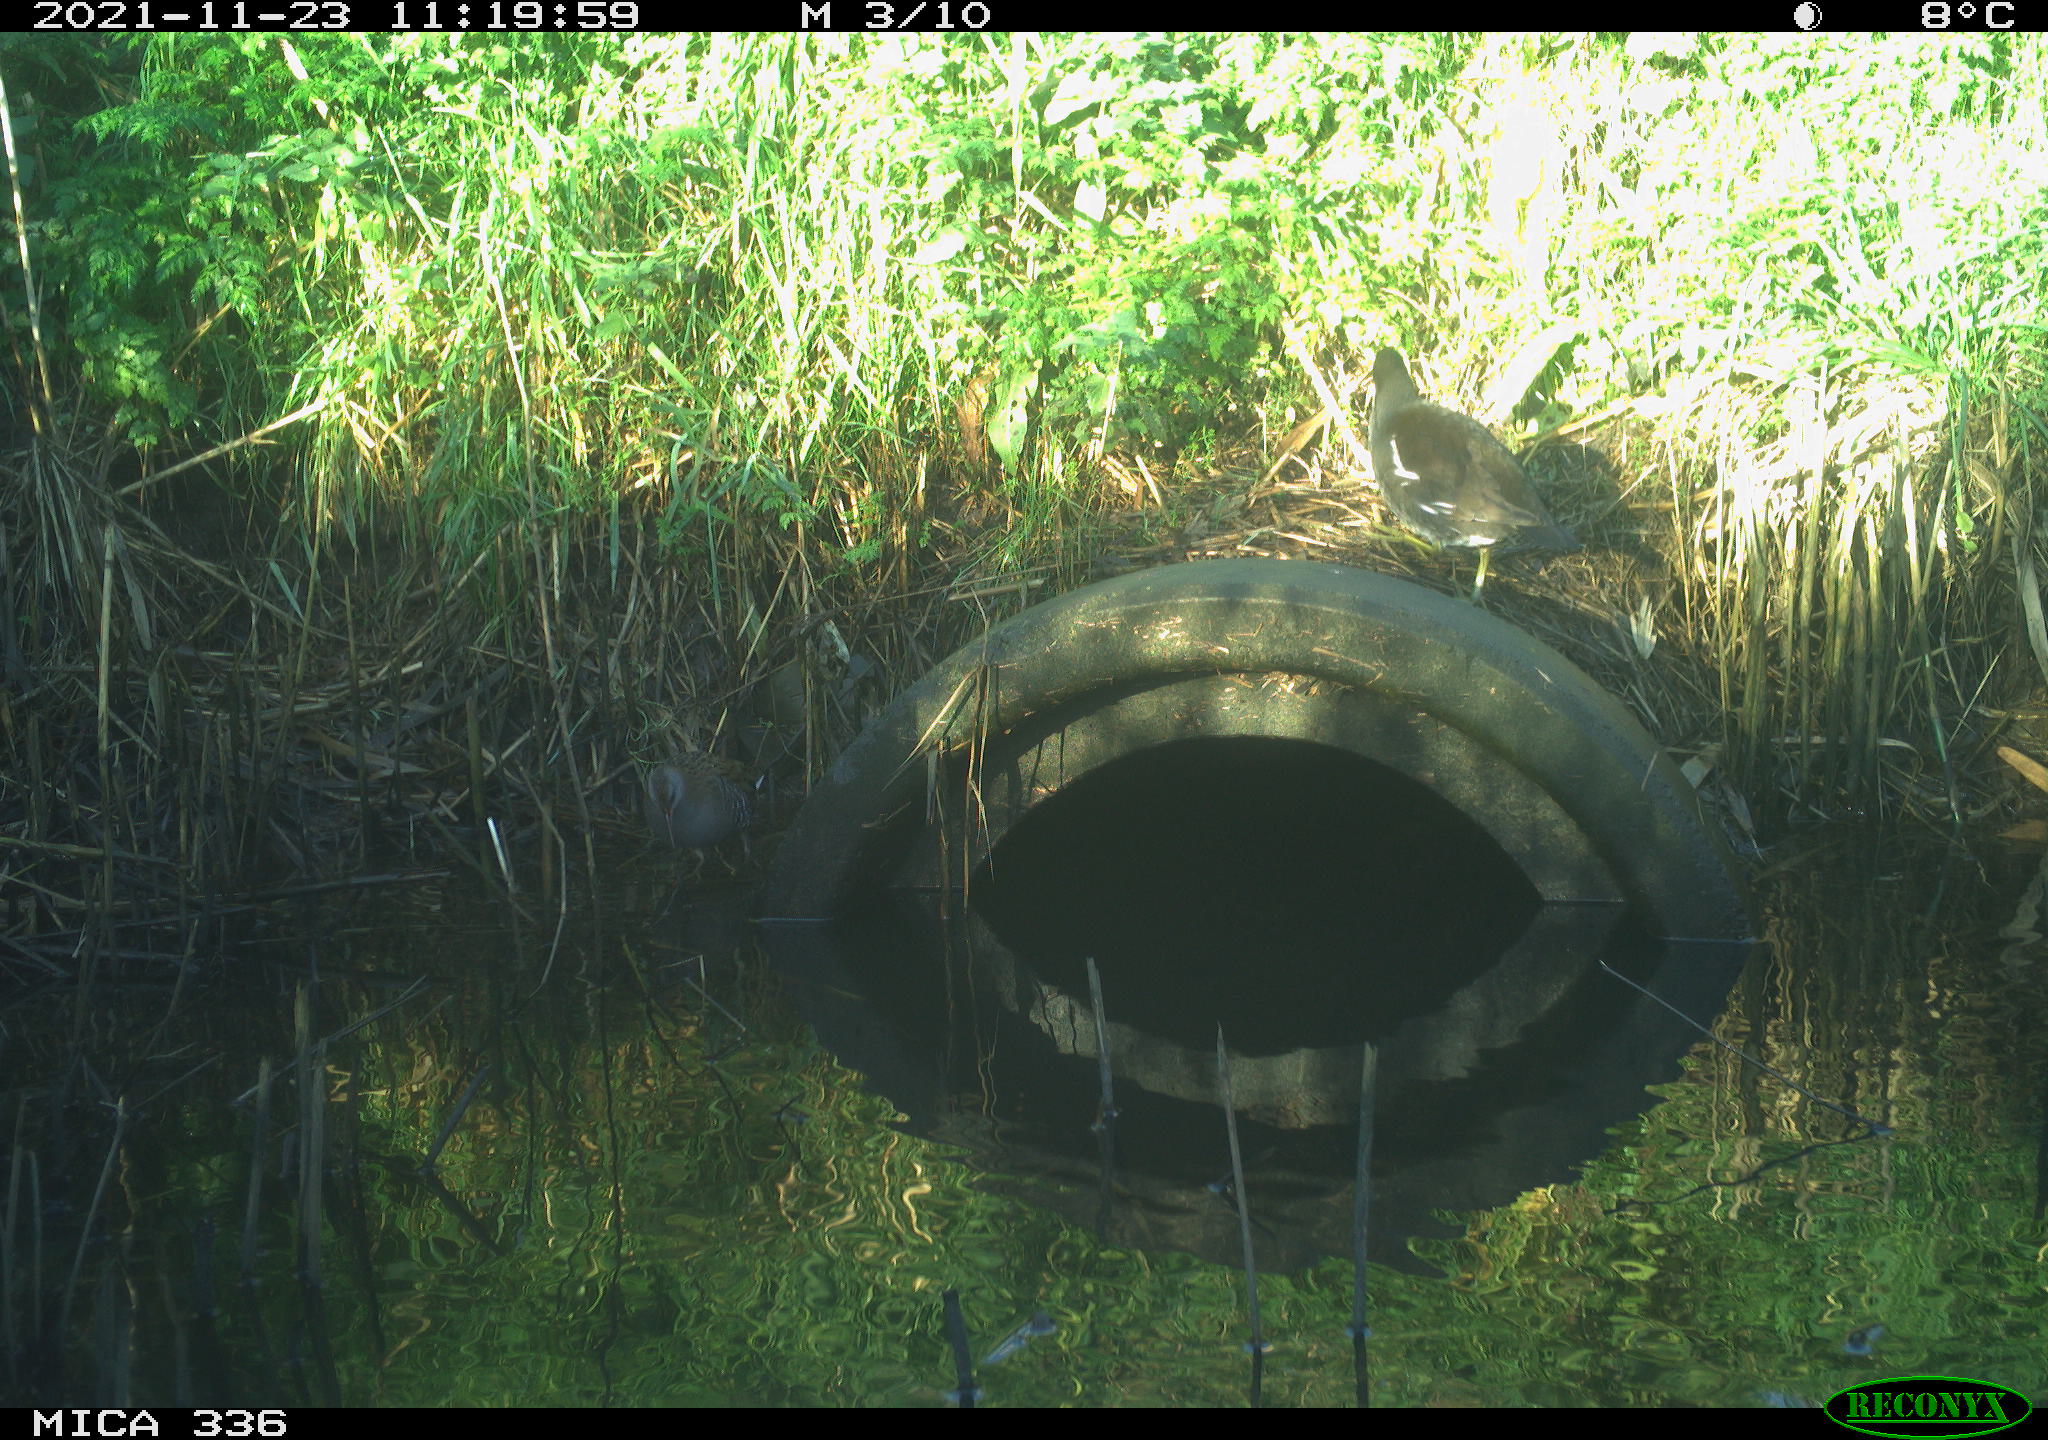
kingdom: Animalia
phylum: Chordata
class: Aves
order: Gruiformes
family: Rallidae
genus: Gallinula
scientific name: Gallinula chloropus
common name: Common moorhen
